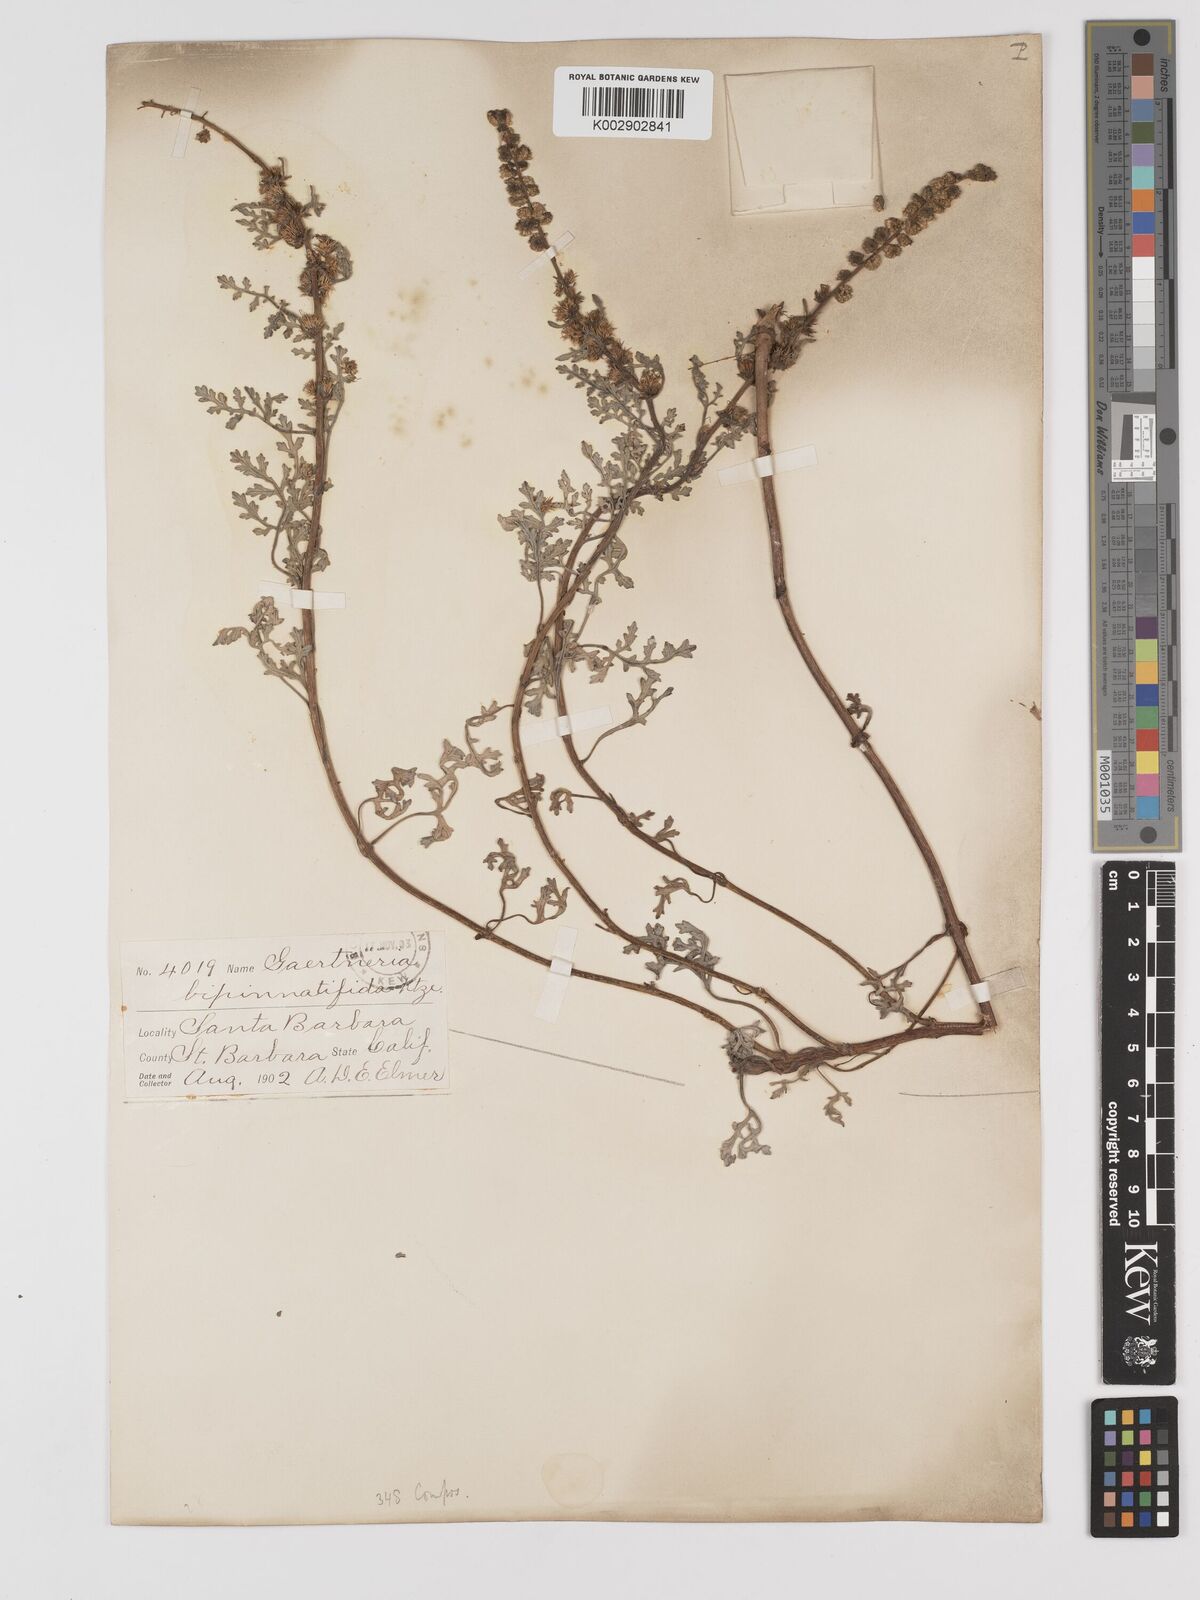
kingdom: Plantae
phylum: Tracheophyta
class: Magnoliopsida
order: Asterales
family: Asteraceae
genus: Ambrosia
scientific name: Ambrosia camphorata
